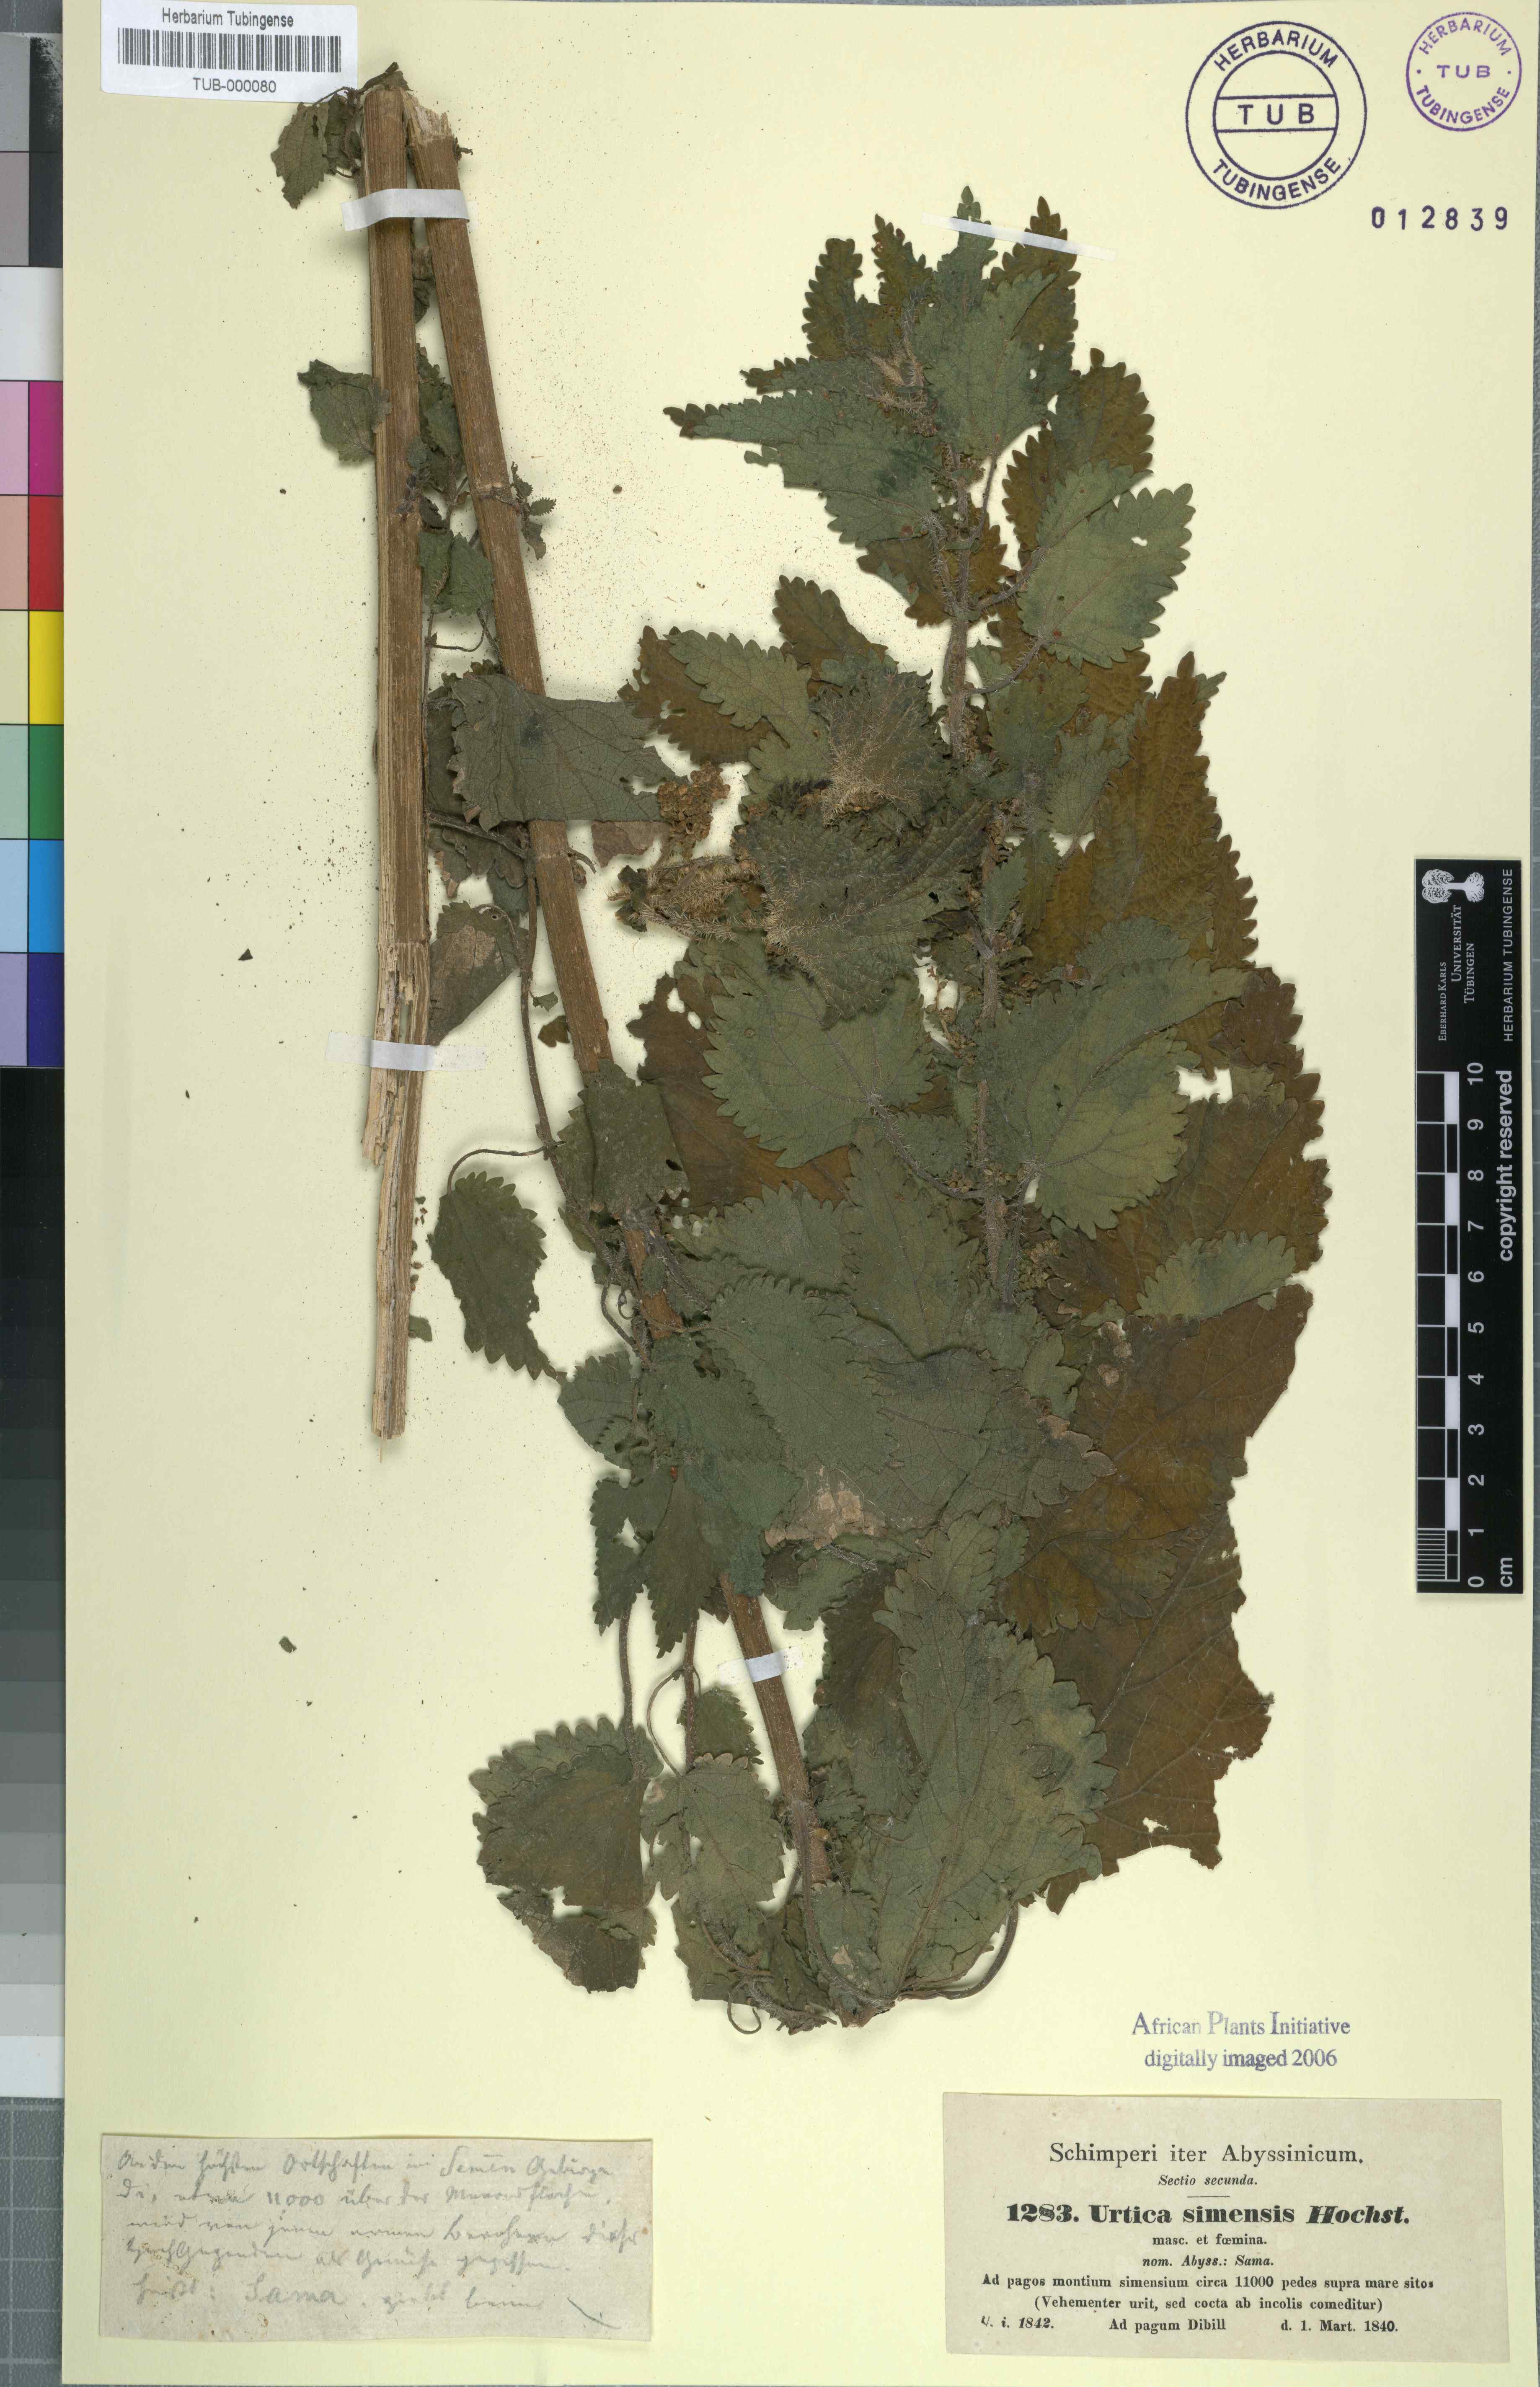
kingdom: Plantae
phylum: Tracheophyta
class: Magnoliopsida
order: Rosales
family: Urticaceae
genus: Urtica
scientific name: Urtica simensis
